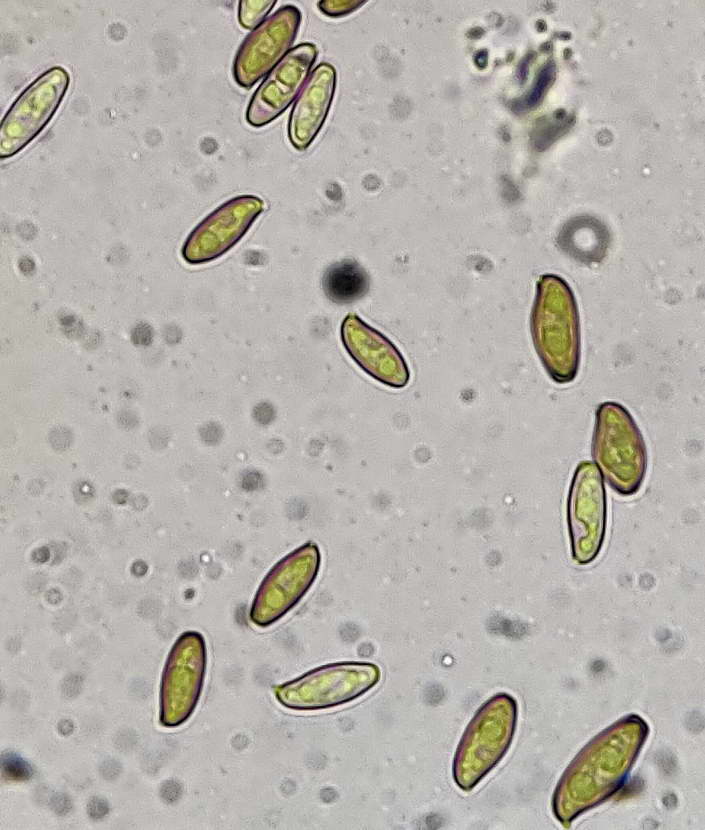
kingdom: Fungi
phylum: Basidiomycota
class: Agaricomycetes
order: Boletales
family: Boletaceae
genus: Xerocomellus
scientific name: Xerocomellus porosporus
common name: hvidsprukken rørhat
